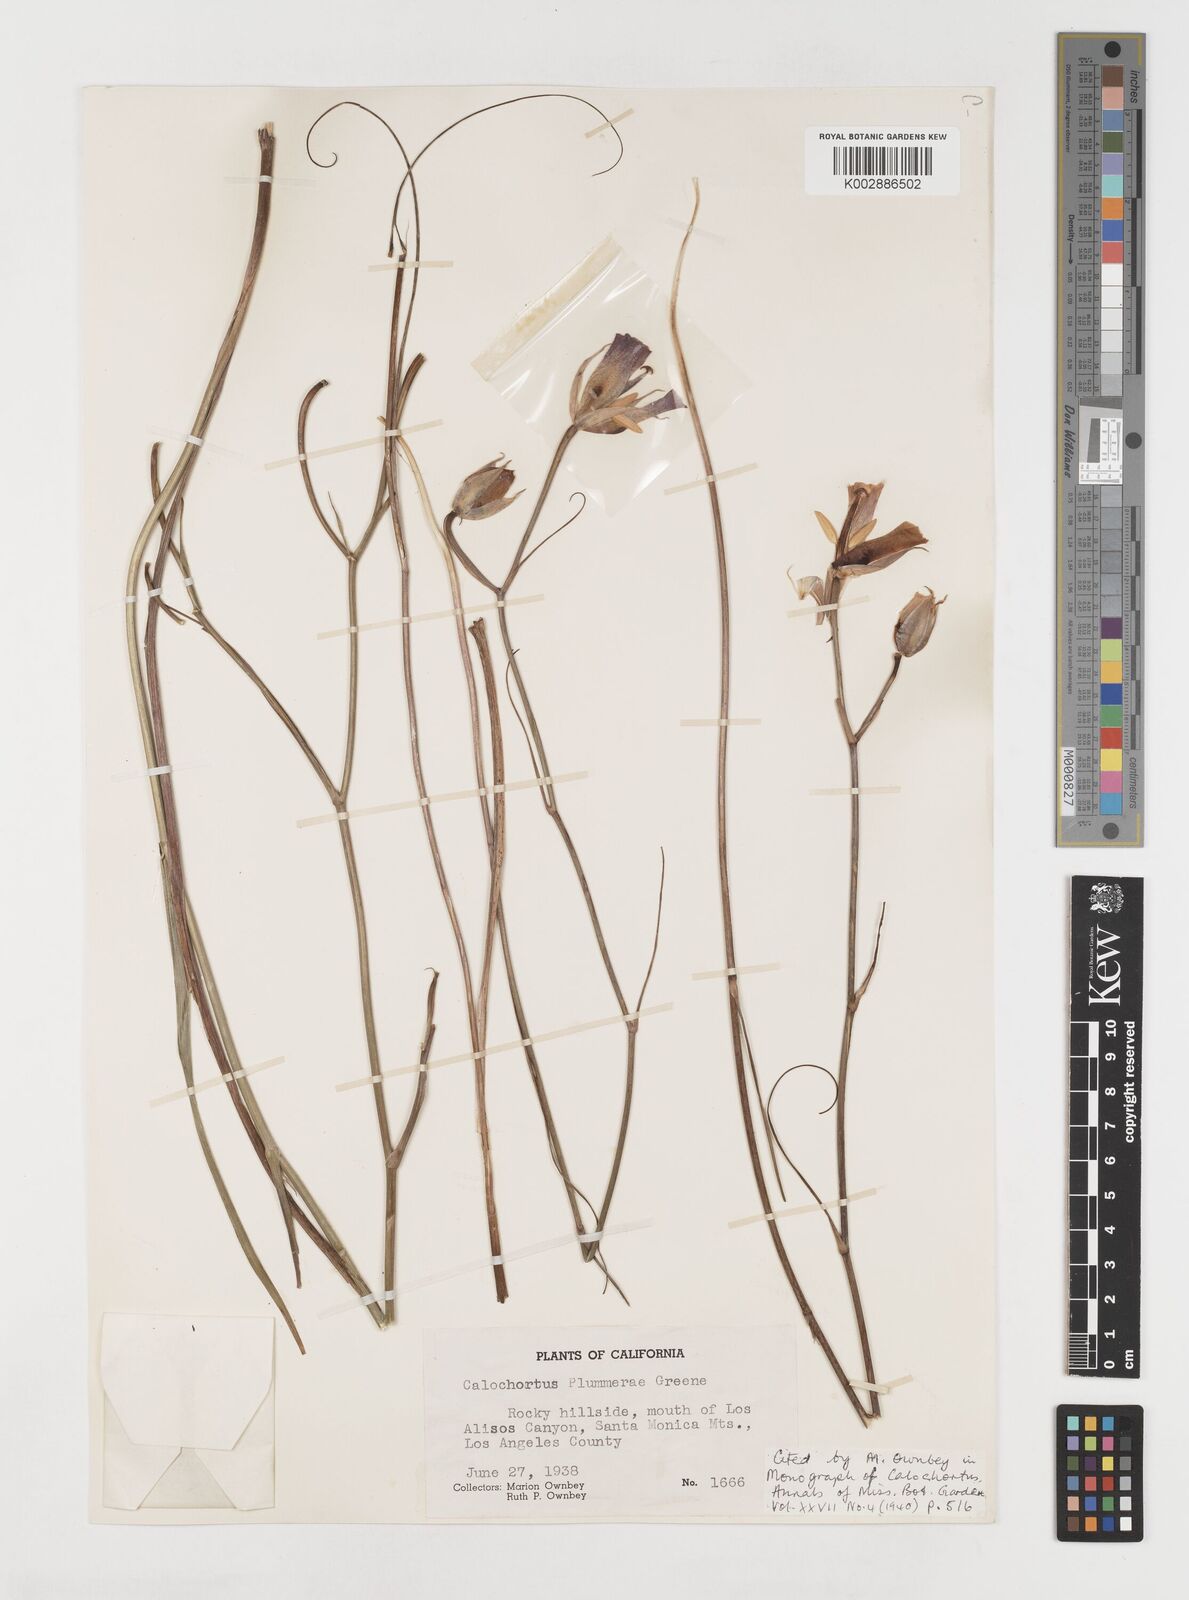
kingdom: Plantae
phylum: Tracheophyta
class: Liliopsida
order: Liliales
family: Liliaceae
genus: Calochortus
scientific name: Calochortus plummerae
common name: Plummer's mariposa-lily
